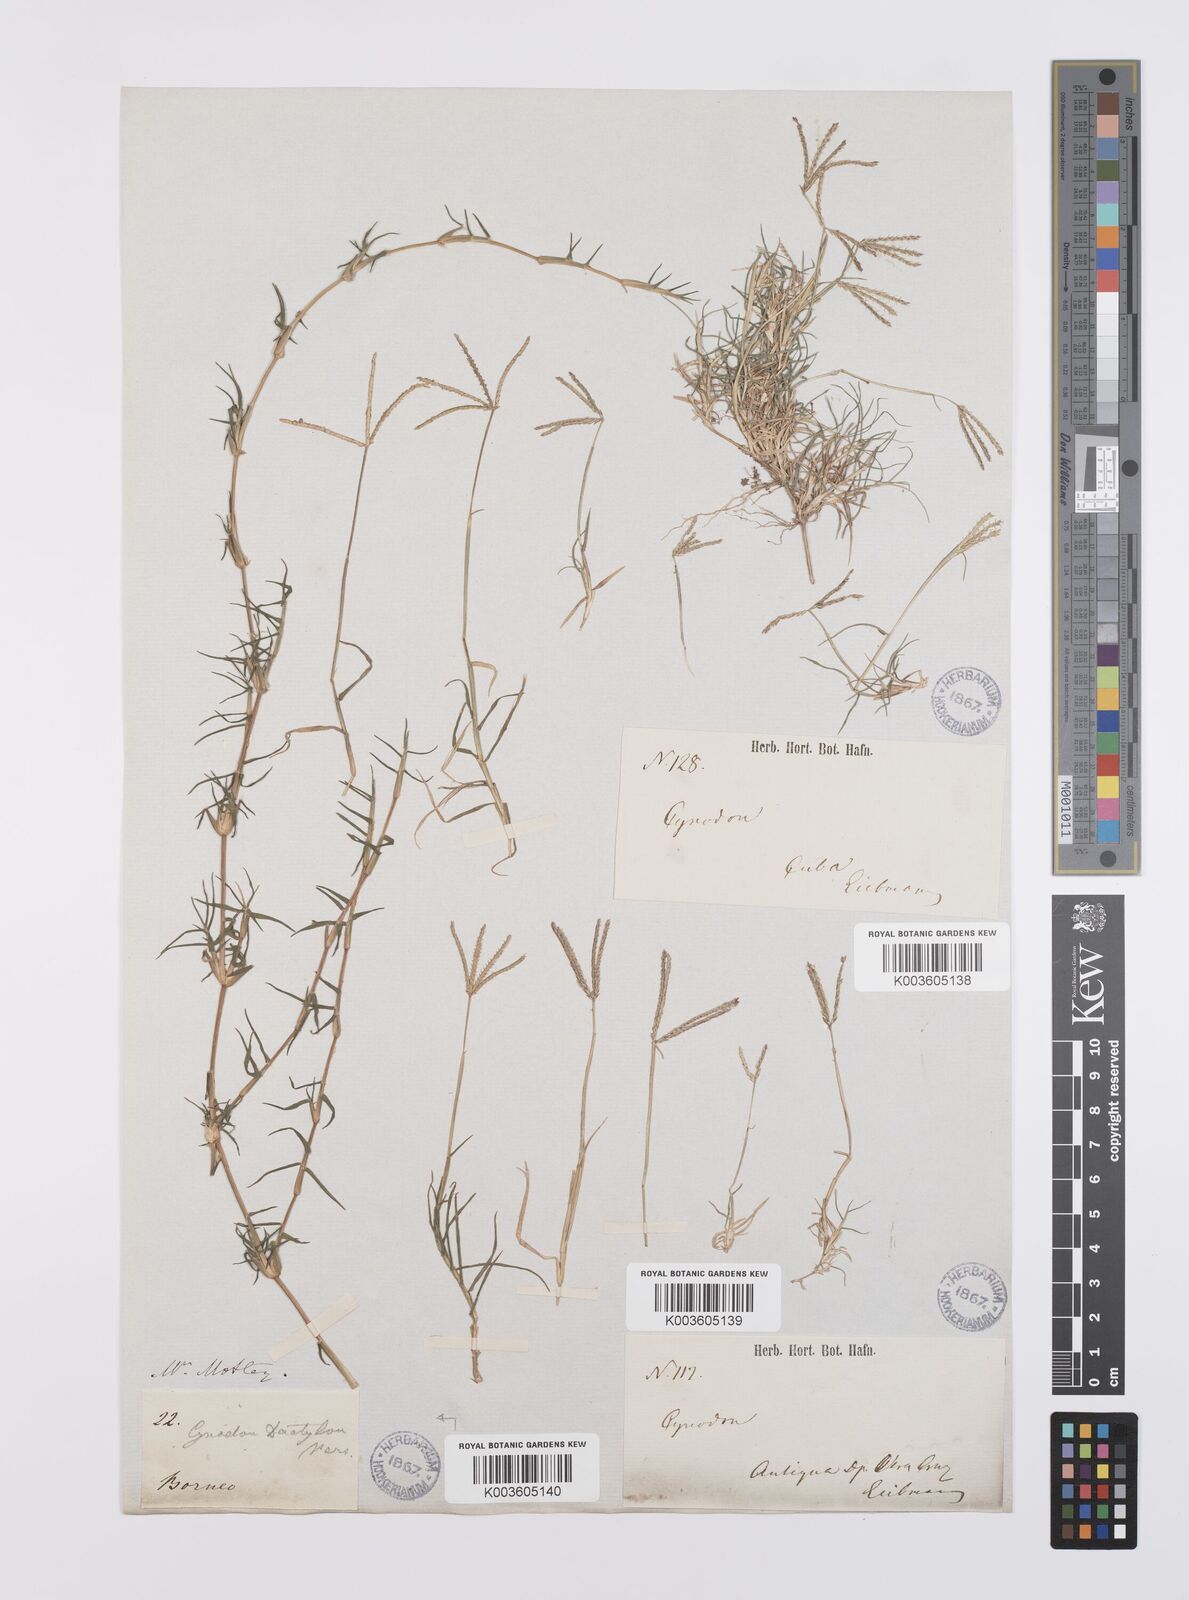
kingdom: Plantae
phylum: Tracheophyta
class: Liliopsida
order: Poales
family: Poaceae
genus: Cynodon
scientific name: Cynodon dactylon
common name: Bermuda grass
